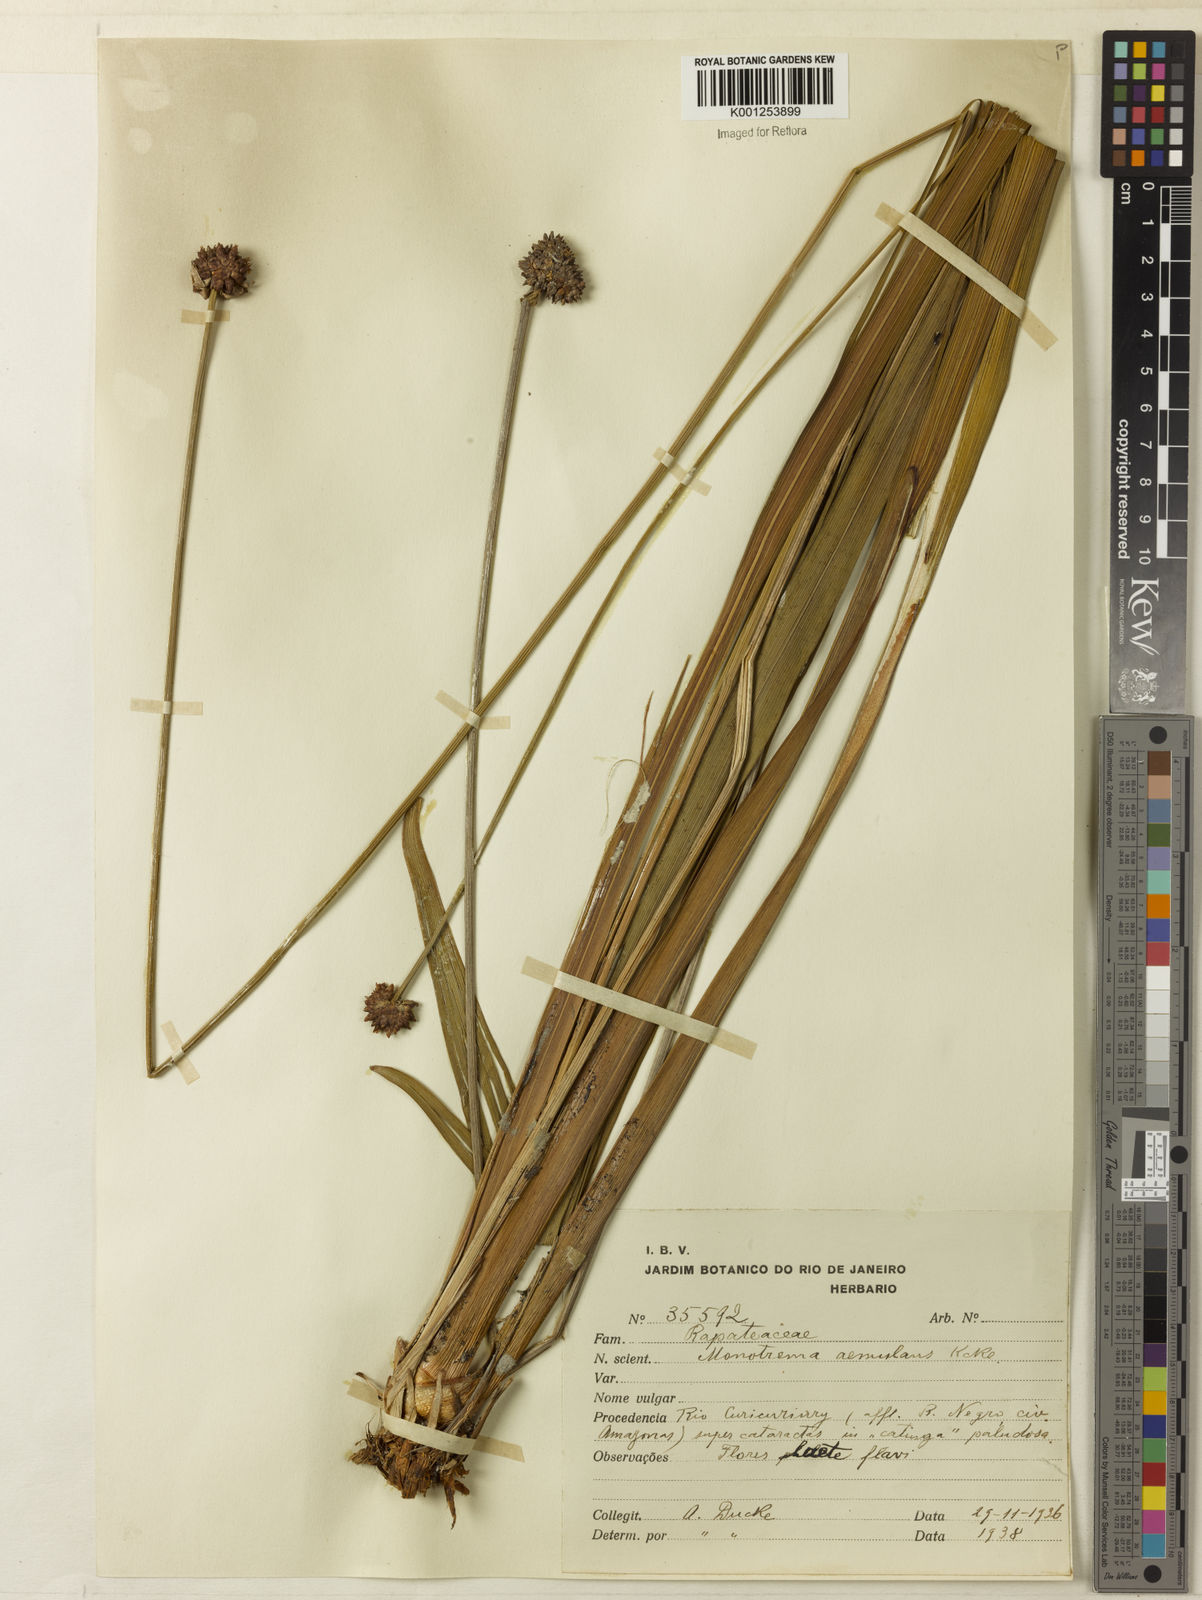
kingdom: Plantae
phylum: Tracheophyta
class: Liliopsida
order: Poales
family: Rapateaceae
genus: Monotrema
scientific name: Monotrema aemulans
